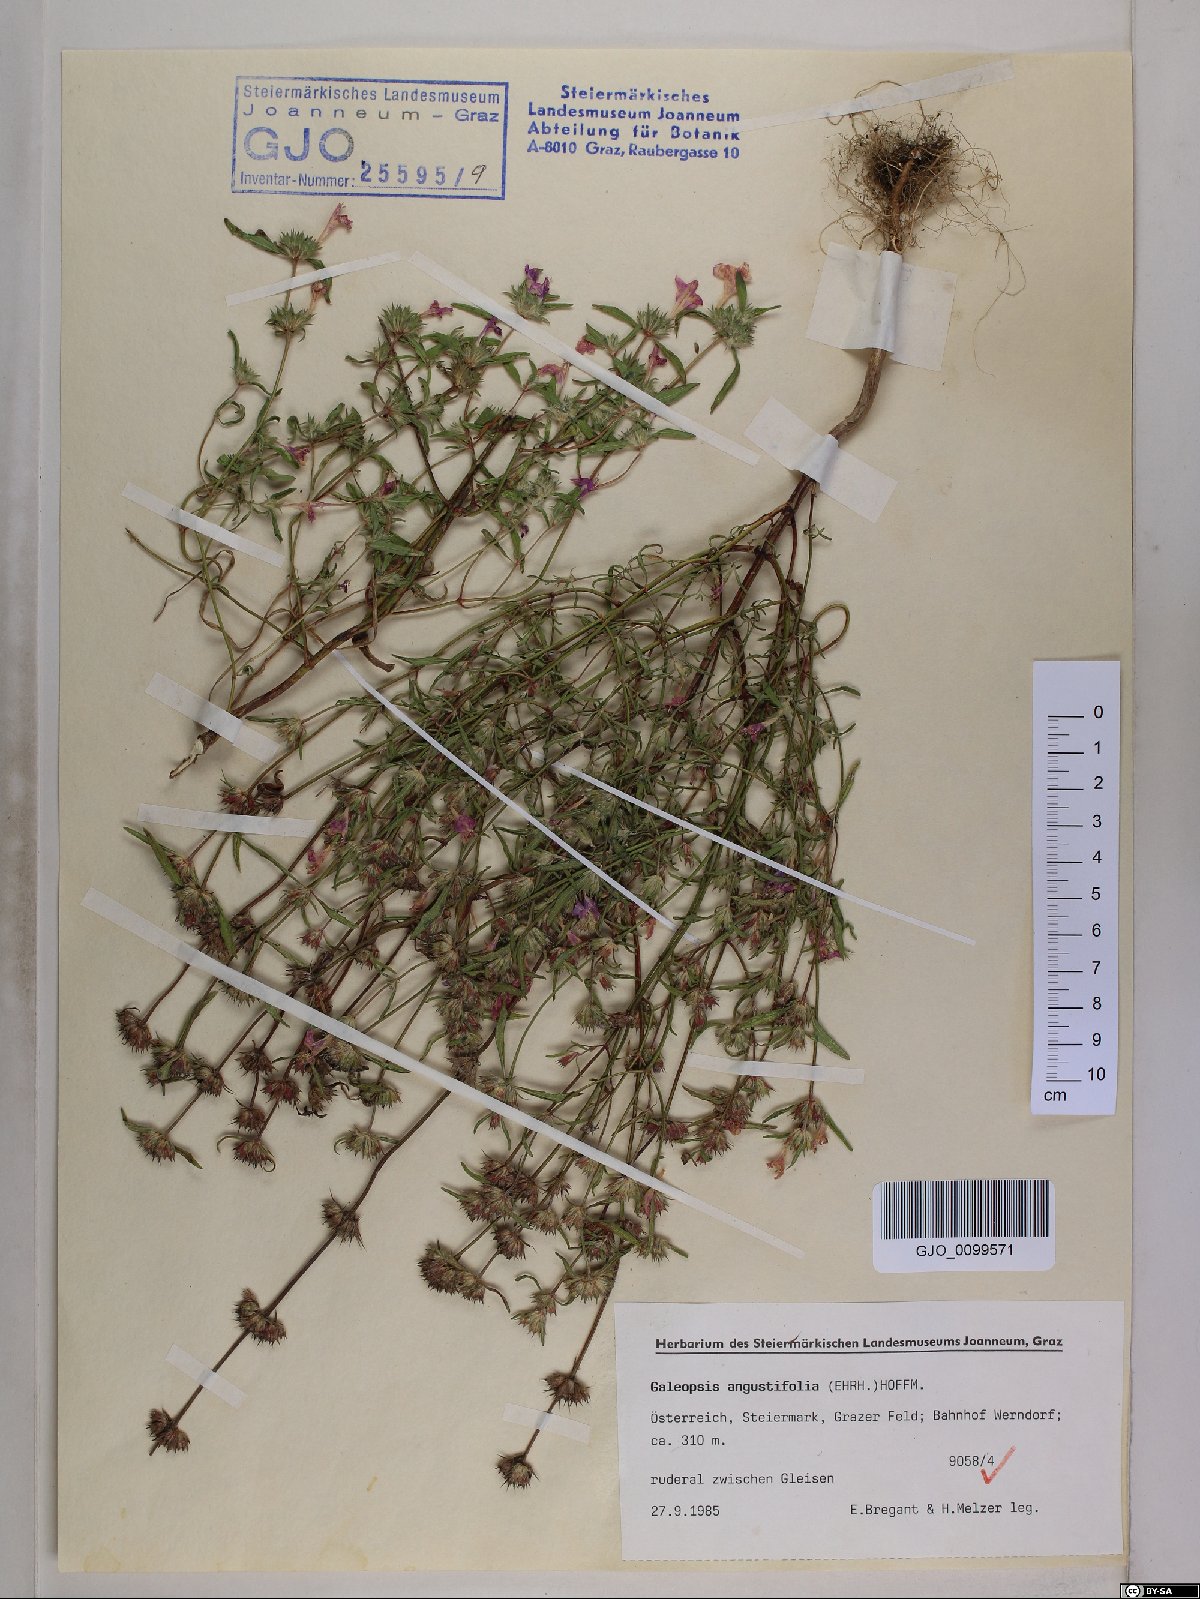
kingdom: Plantae
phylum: Tracheophyta
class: Magnoliopsida
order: Lamiales
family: Lamiaceae
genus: Galeopsis
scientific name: Galeopsis angustifolia
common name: Red hemp-nettle
